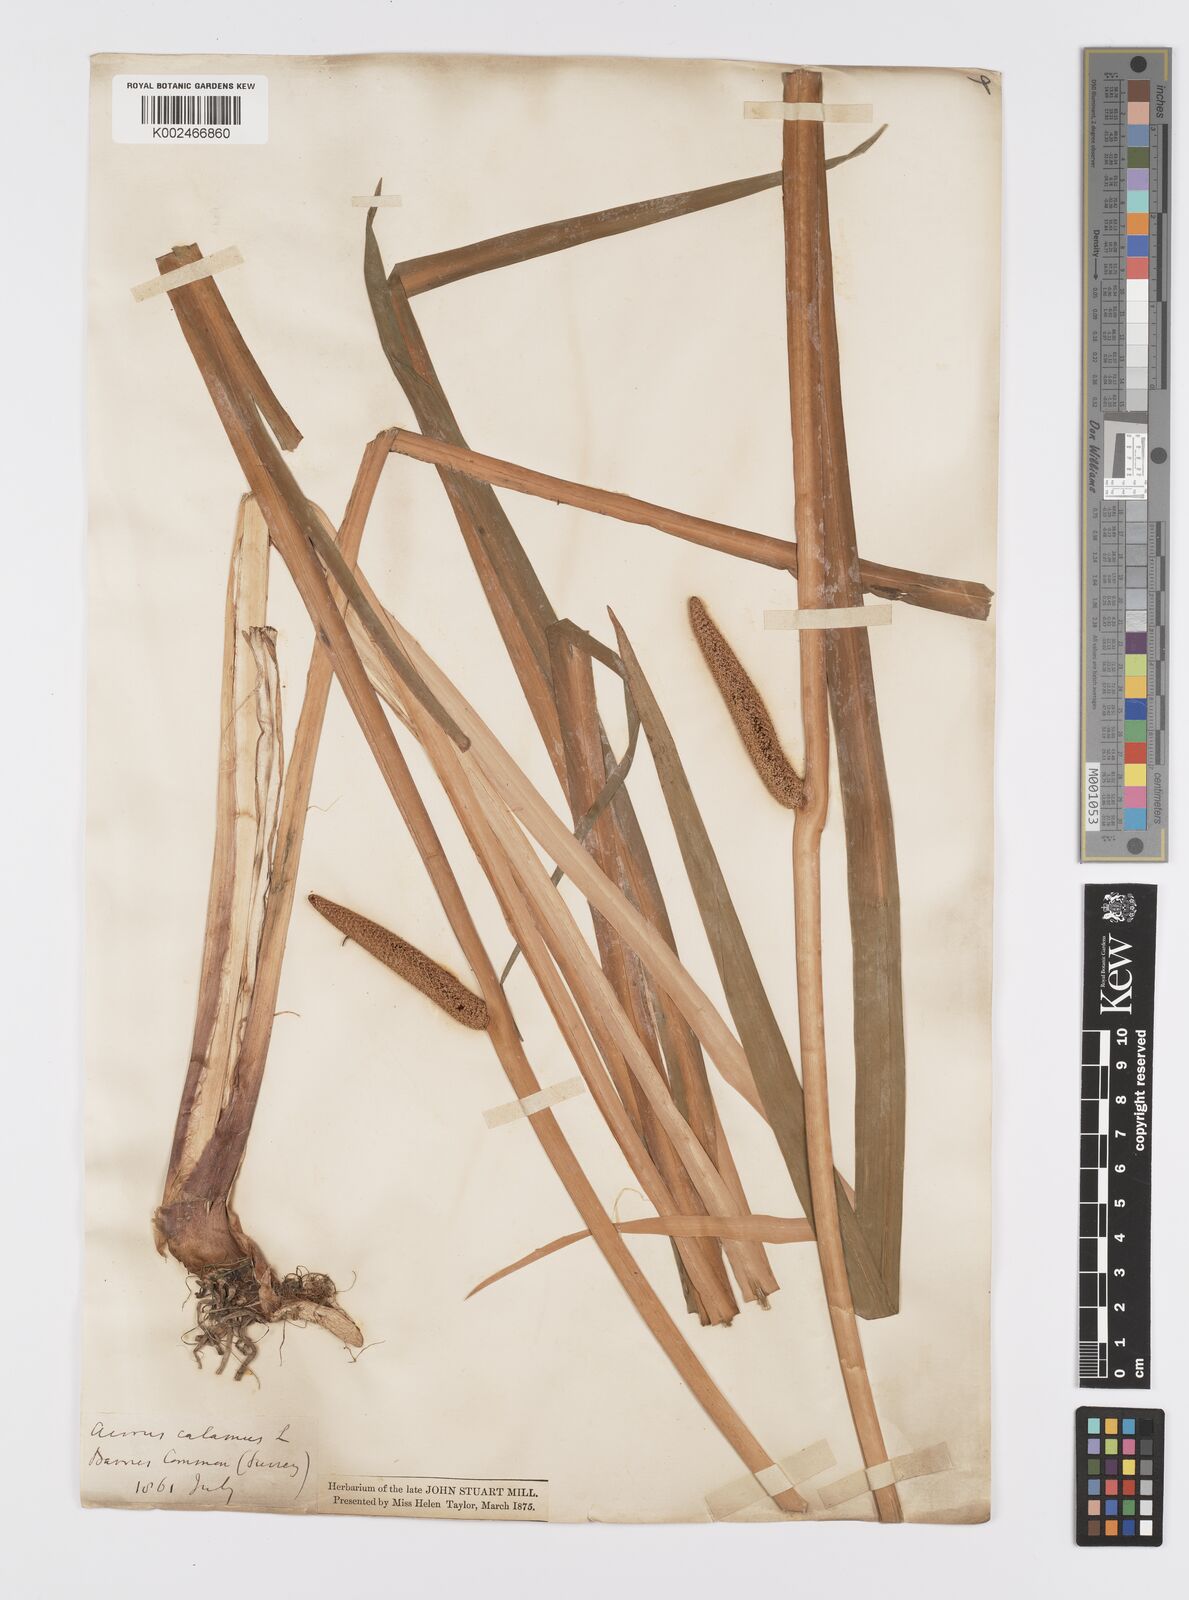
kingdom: Plantae
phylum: Tracheophyta
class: Liliopsida
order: Acorales
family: Acoraceae
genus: Acorus
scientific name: Acorus calamus
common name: Sweet-flag
